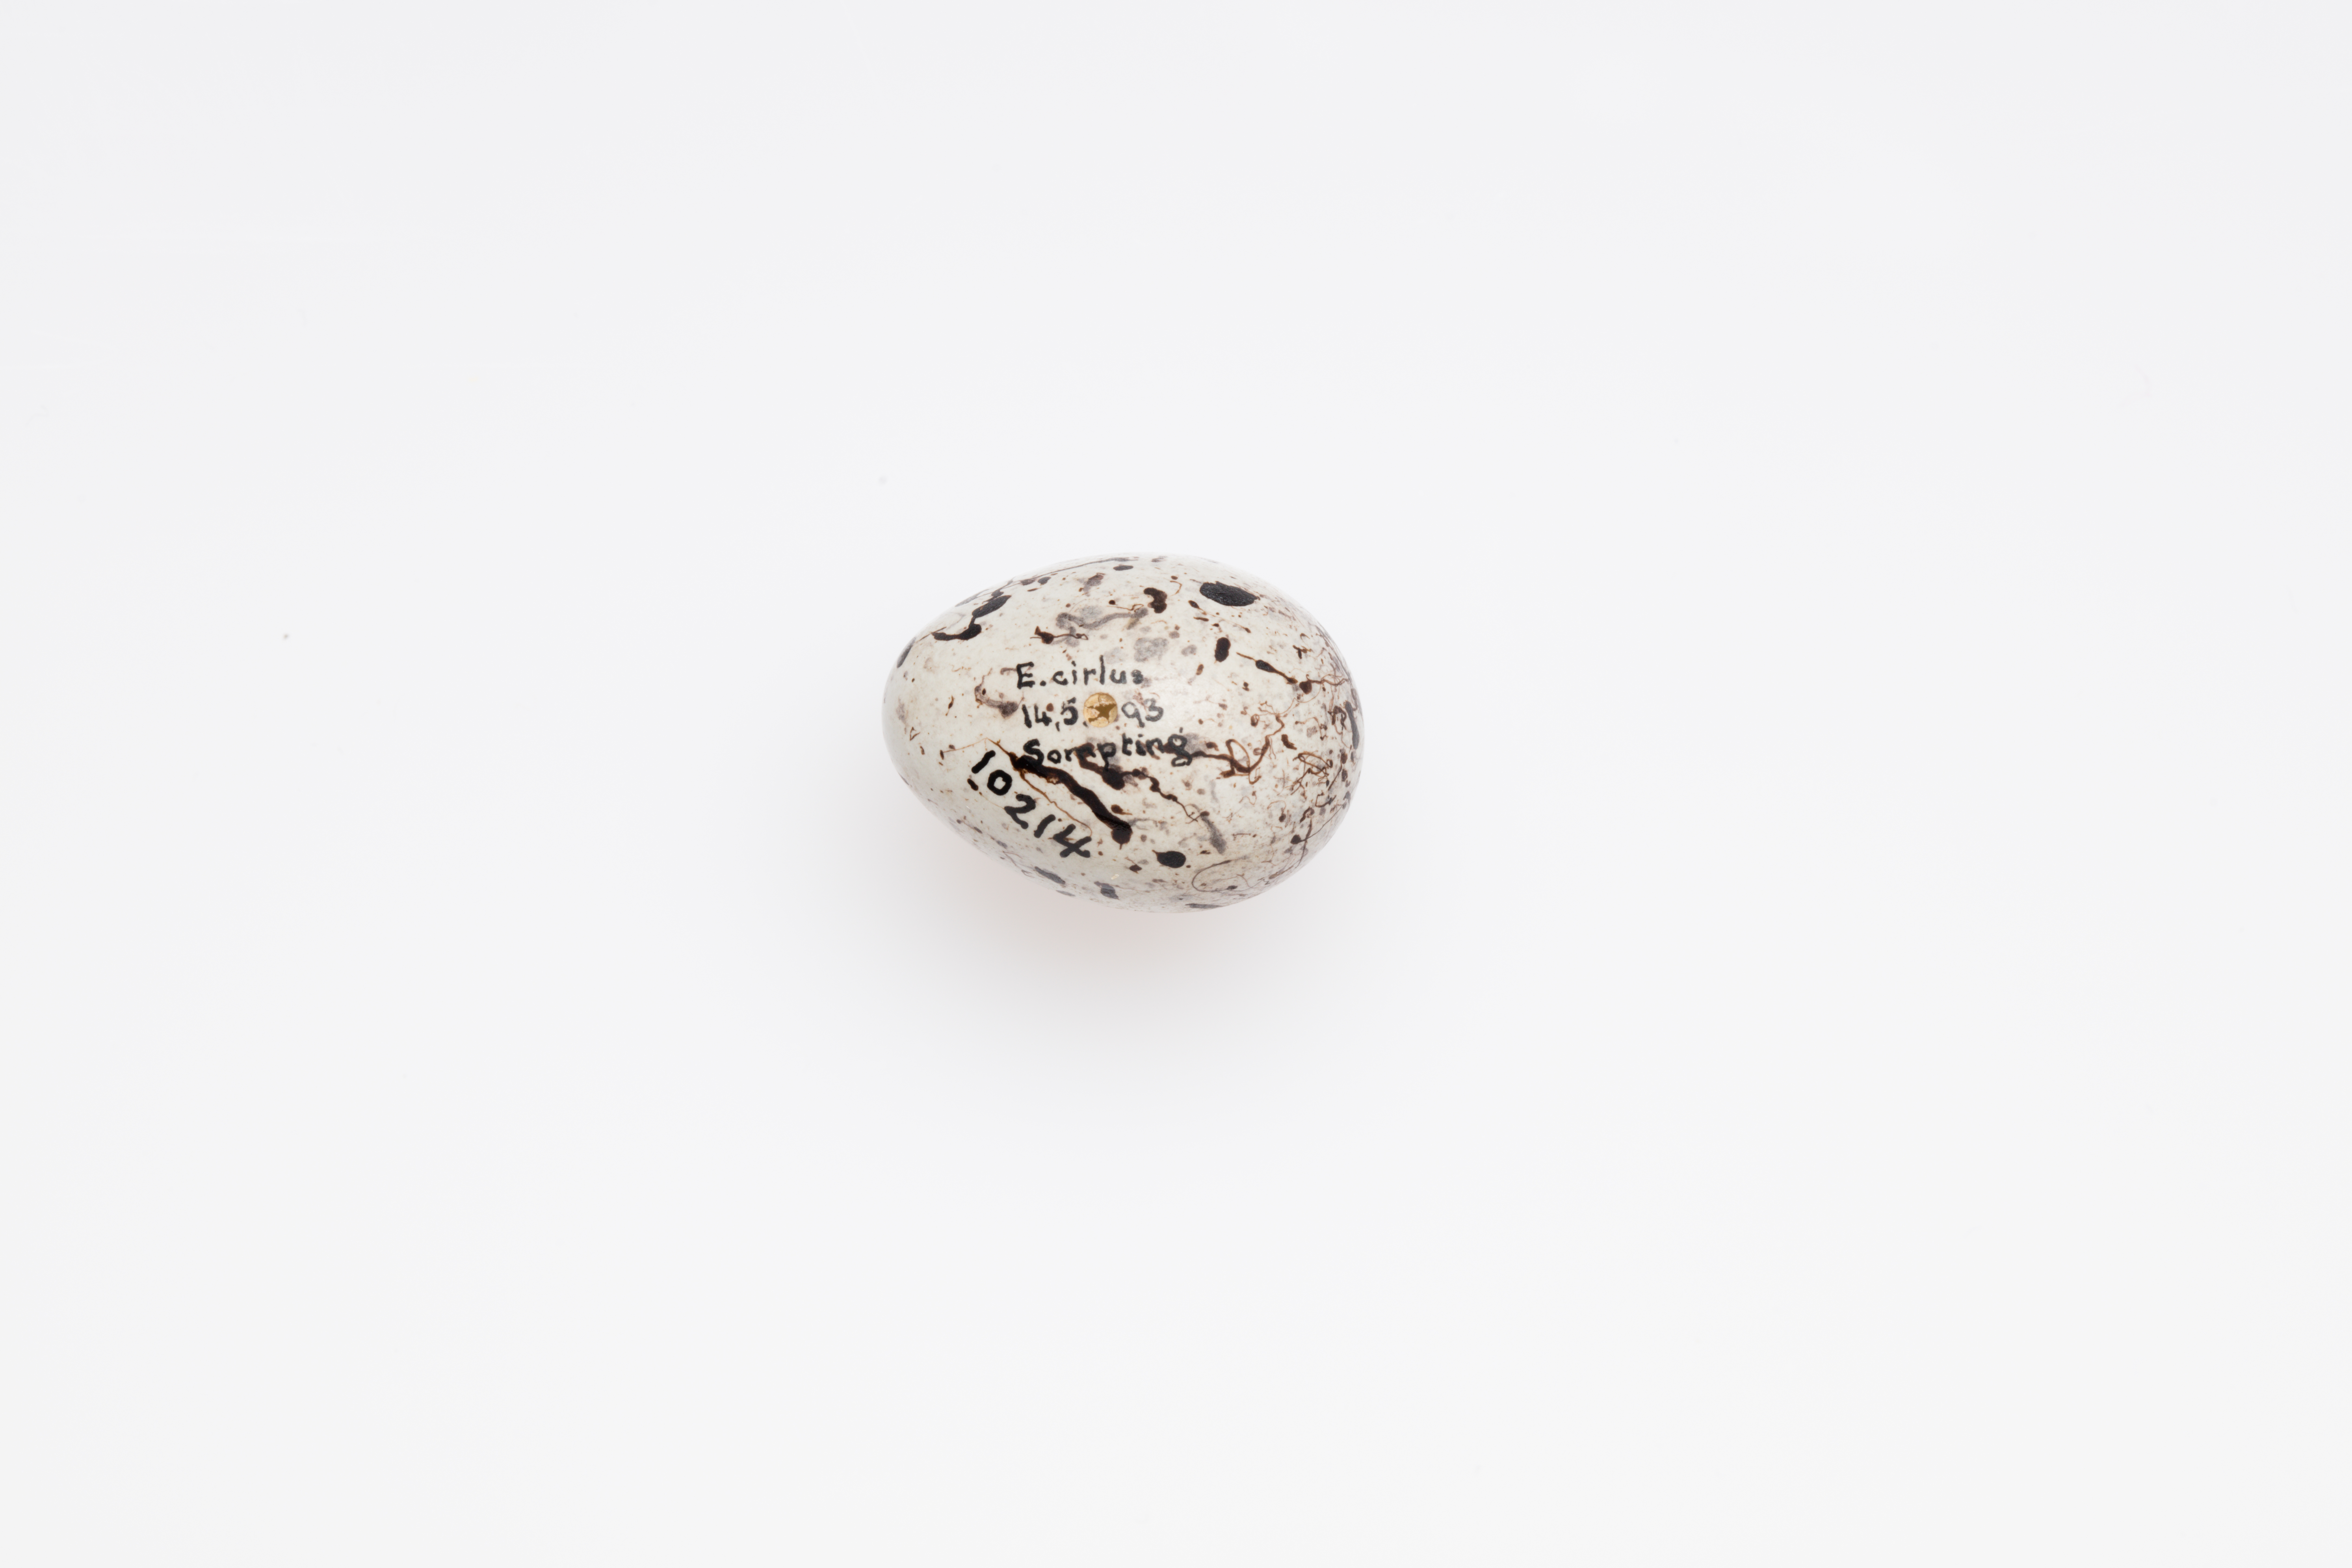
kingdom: Animalia
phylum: Chordata
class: Aves
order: Passeriformes
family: Emberizidae
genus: Emberiza
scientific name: Emberiza cirlus
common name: Cirl bunting
